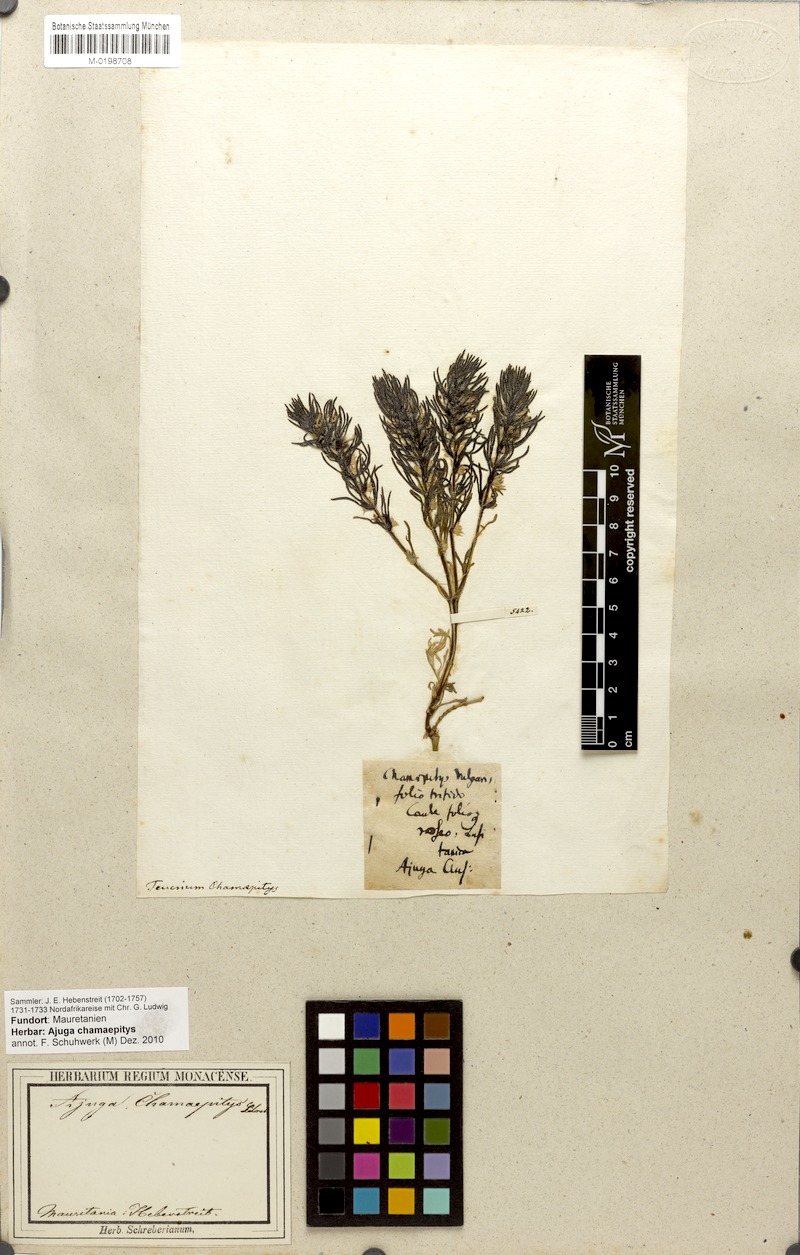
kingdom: Plantae
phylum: Tracheophyta
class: Magnoliopsida
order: Lamiales
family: Lamiaceae
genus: Ajuga
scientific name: Ajuga chamaepitys
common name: Ground-pine
